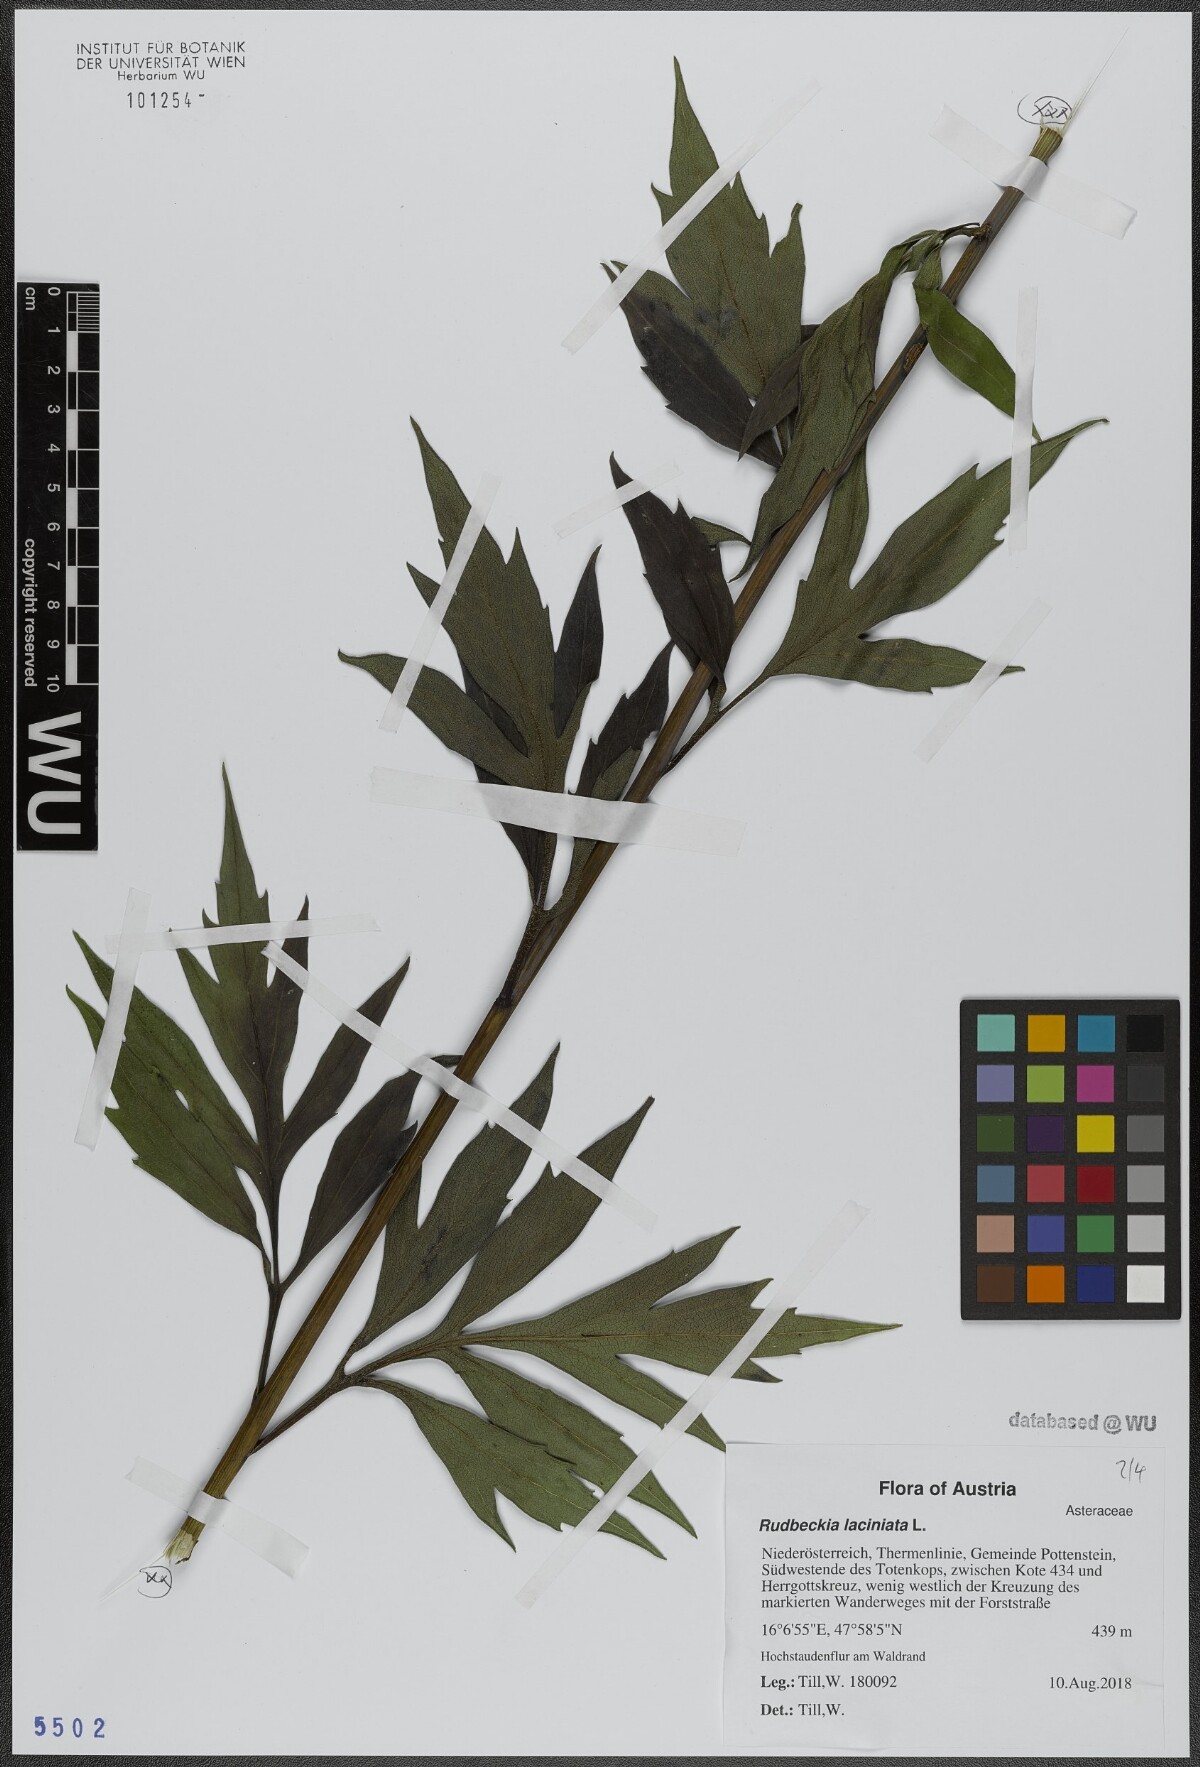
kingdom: Plantae
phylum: Tracheophyta
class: Magnoliopsida
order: Asterales
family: Asteraceae
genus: Rudbeckia
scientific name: Rudbeckia laciniata
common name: Coneflower
